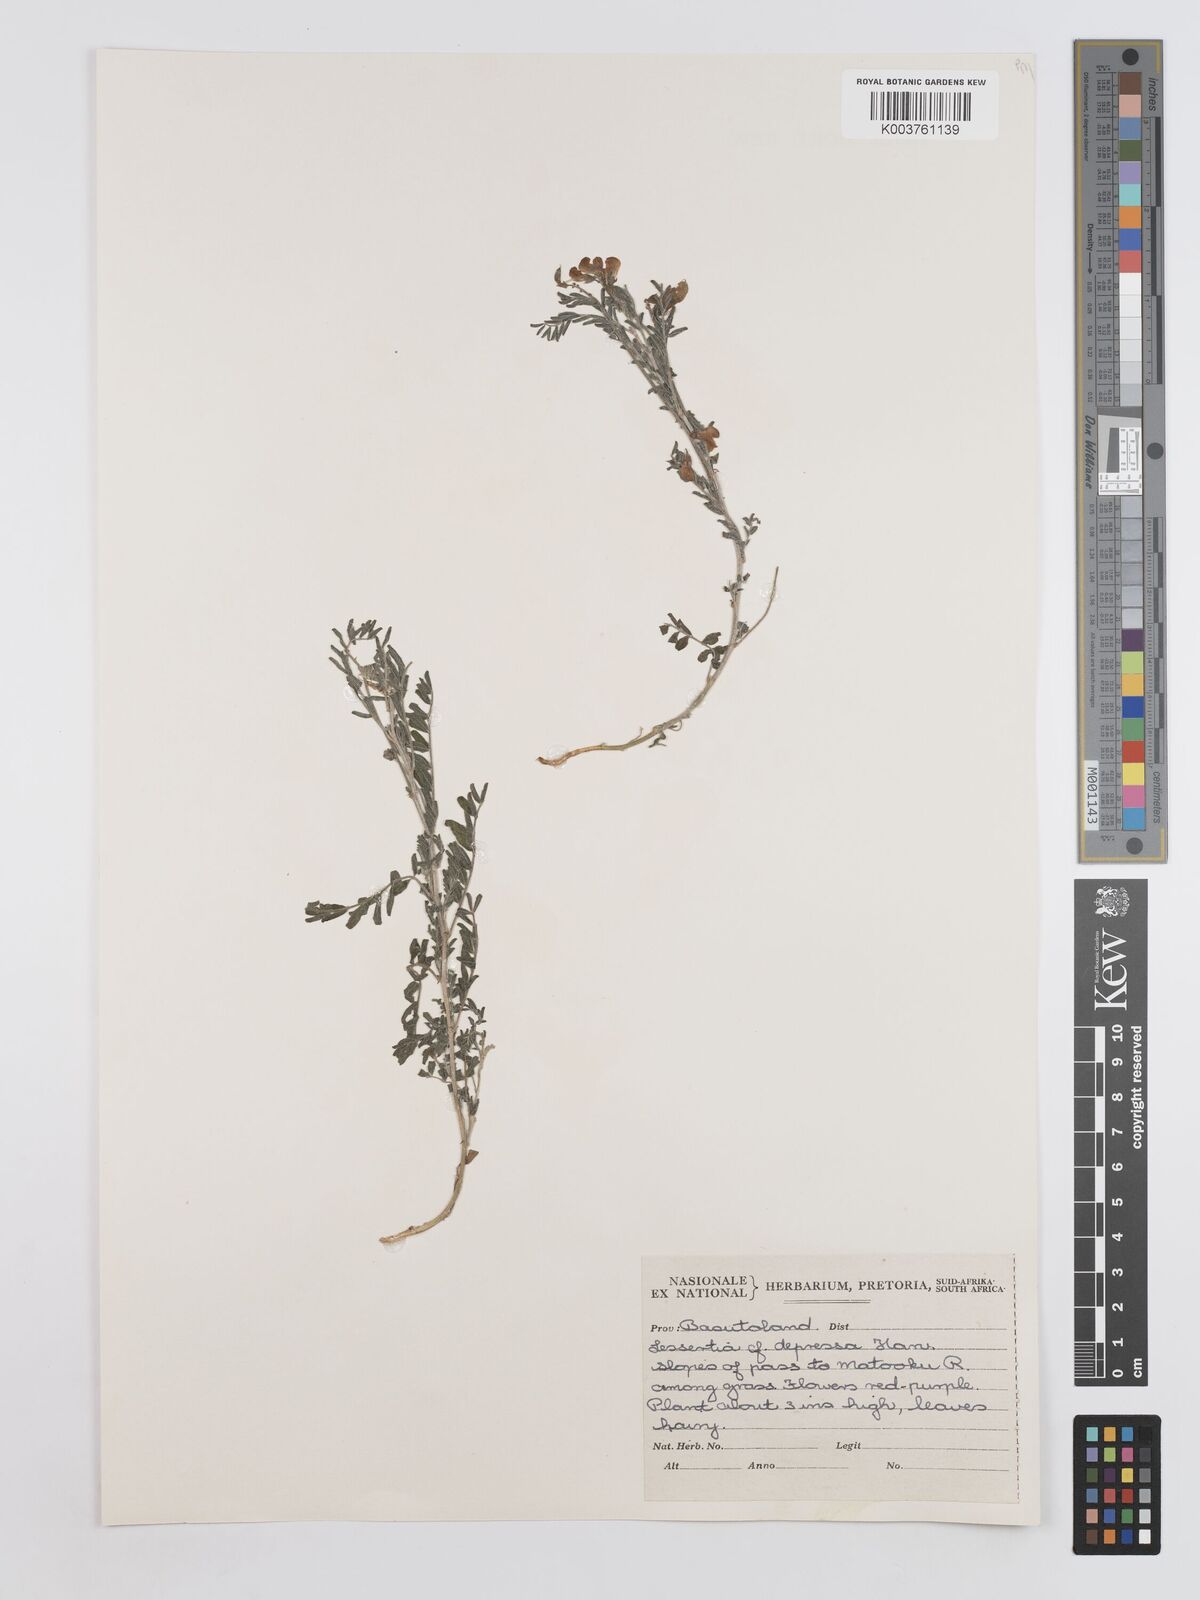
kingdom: Plantae
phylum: Tracheophyta
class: Magnoliopsida
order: Fabales
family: Fabaceae
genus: Lessertia
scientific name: Lessertia depressa
